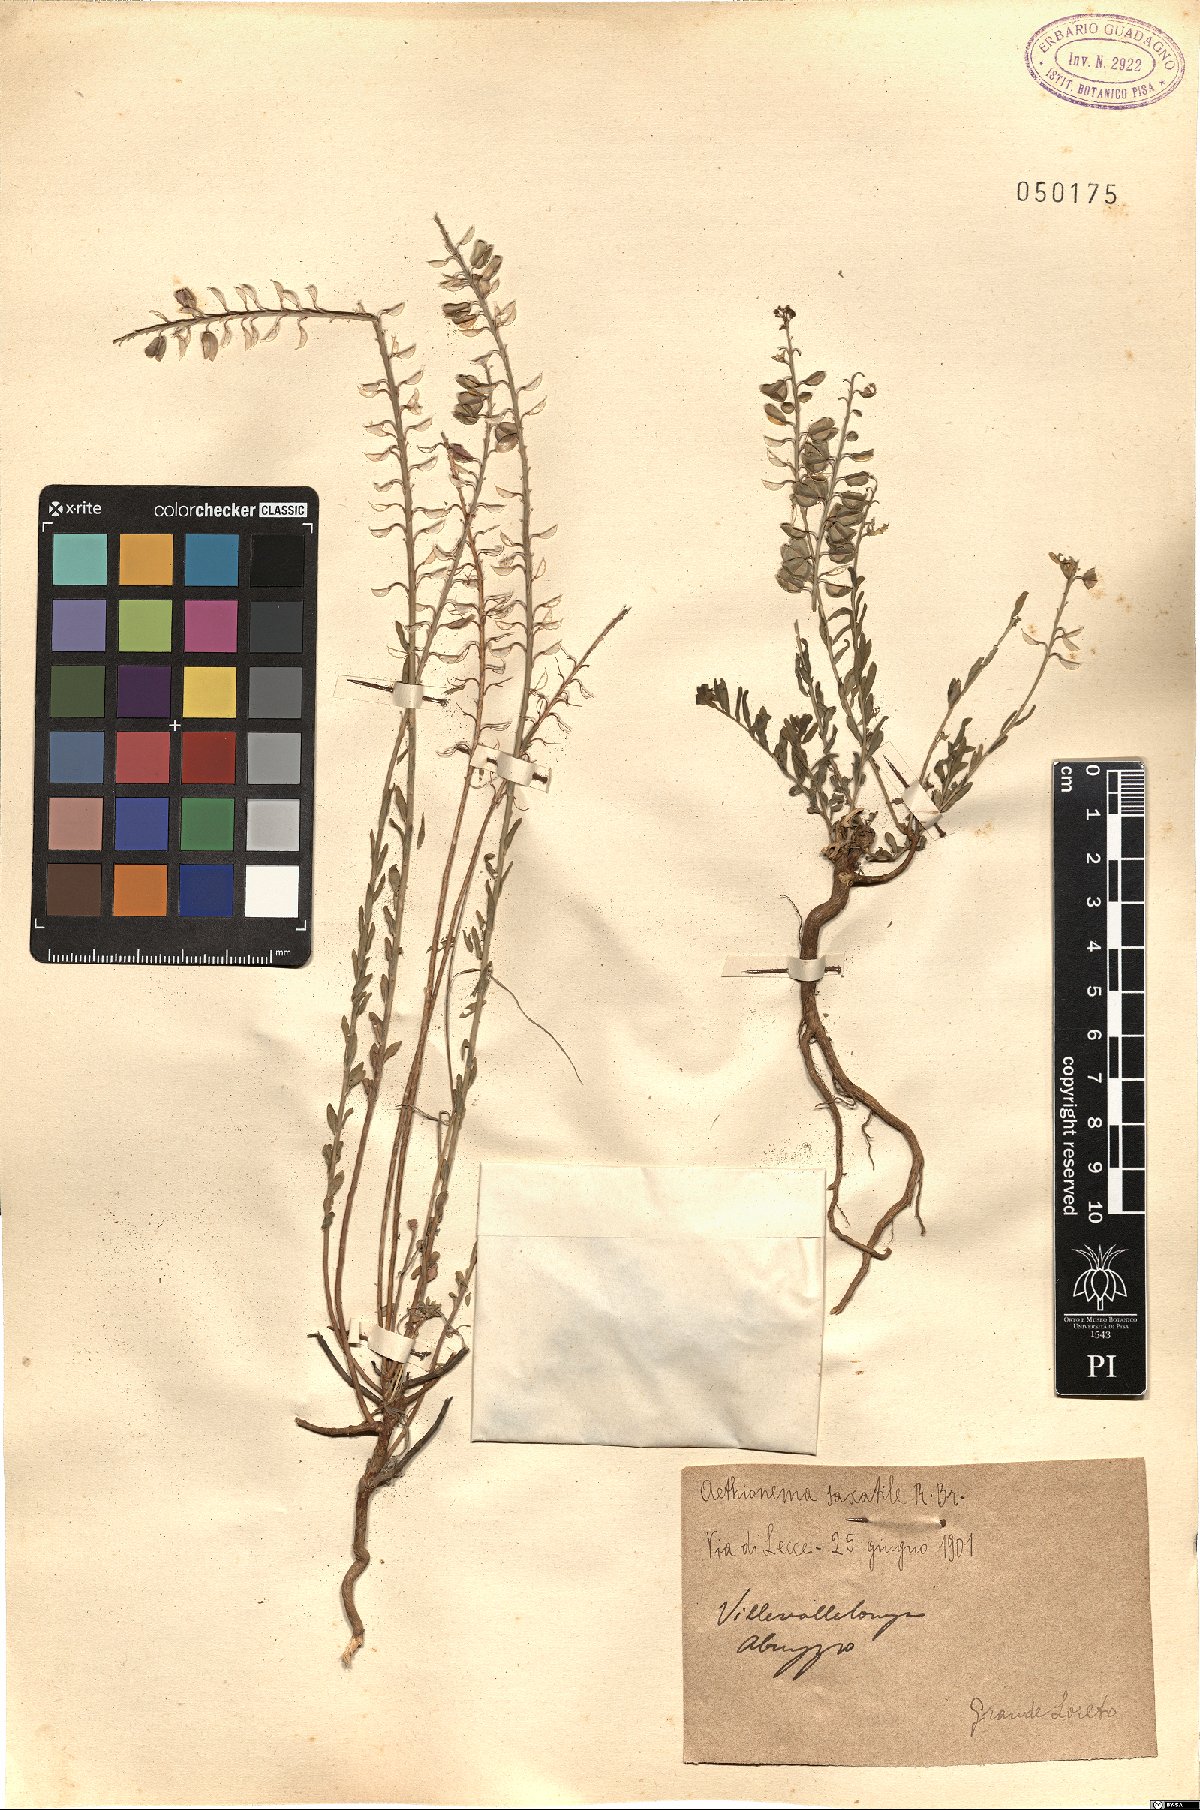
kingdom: Plantae
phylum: Tracheophyta
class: Magnoliopsida
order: Brassicales
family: Brassicaceae
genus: Aethionema
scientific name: Aethionema saxatile
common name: Burnt candytuft
